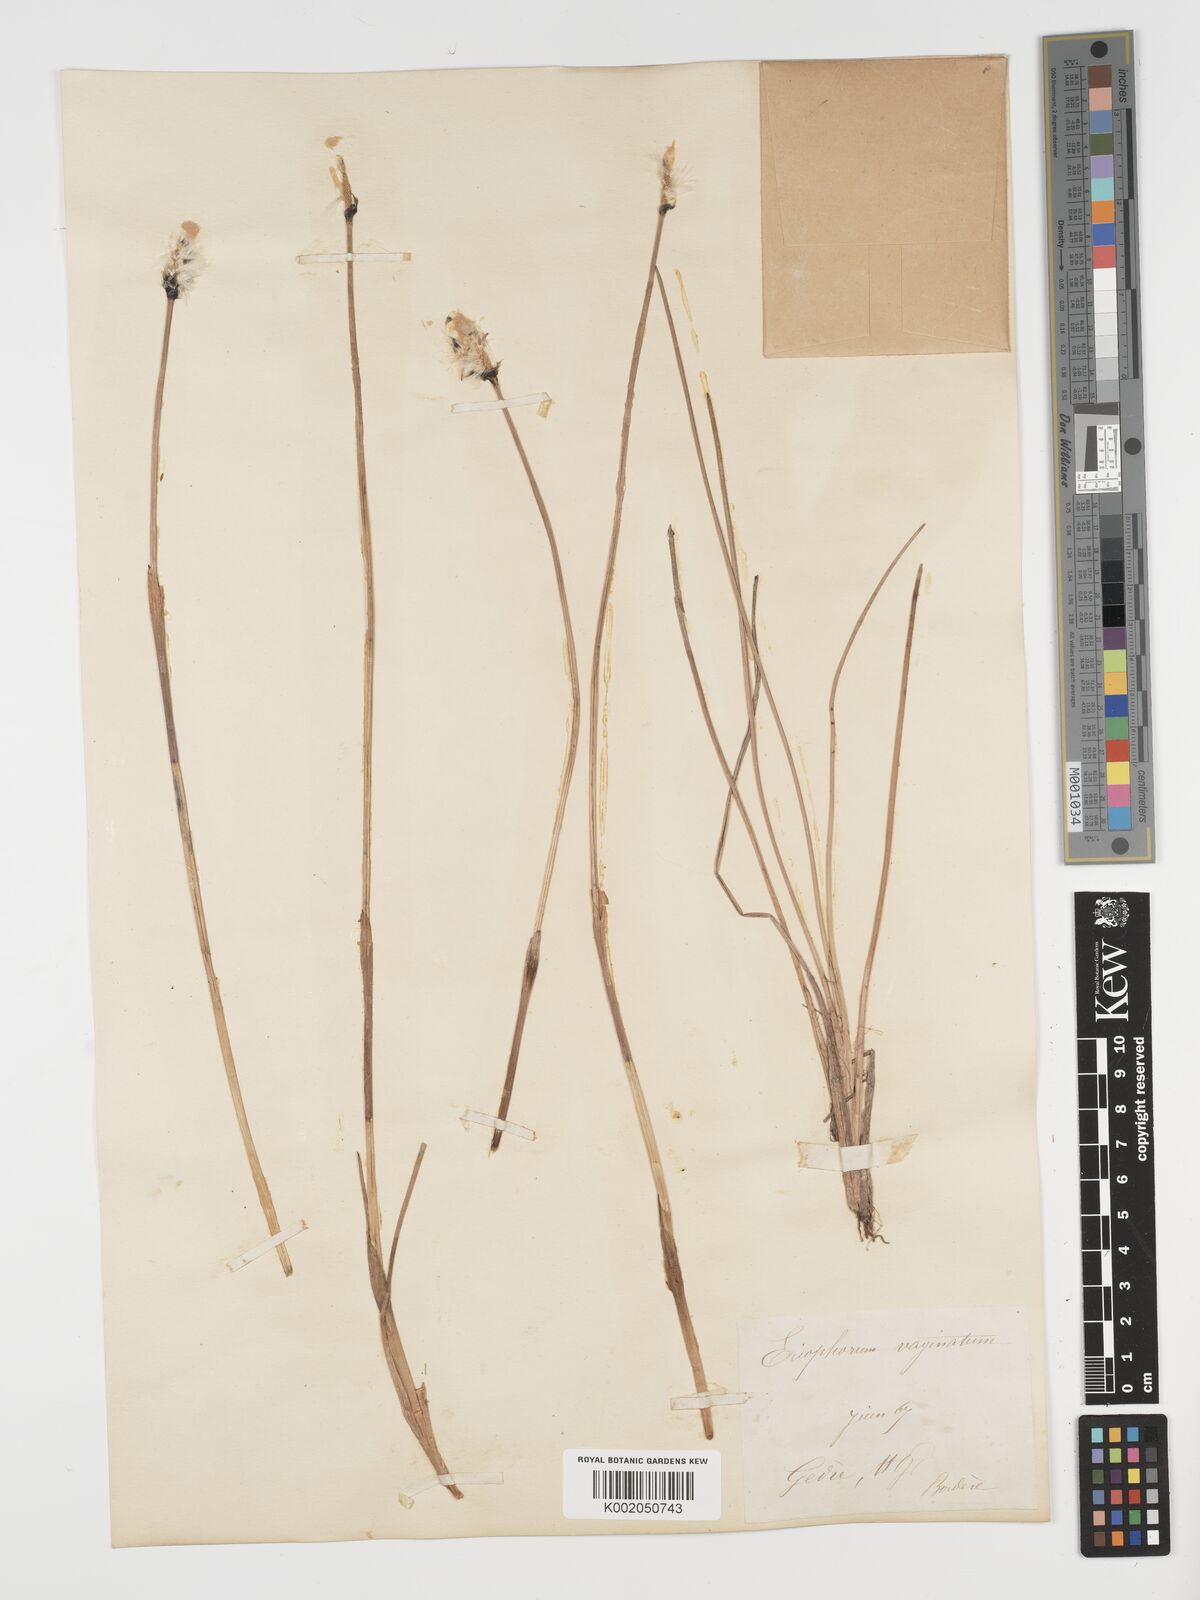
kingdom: Plantae
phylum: Tracheophyta
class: Liliopsida
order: Poales
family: Cyperaceae
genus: Eriophorum
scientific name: Eriophorum vaginatum
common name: Hare's-tail cottongrass
